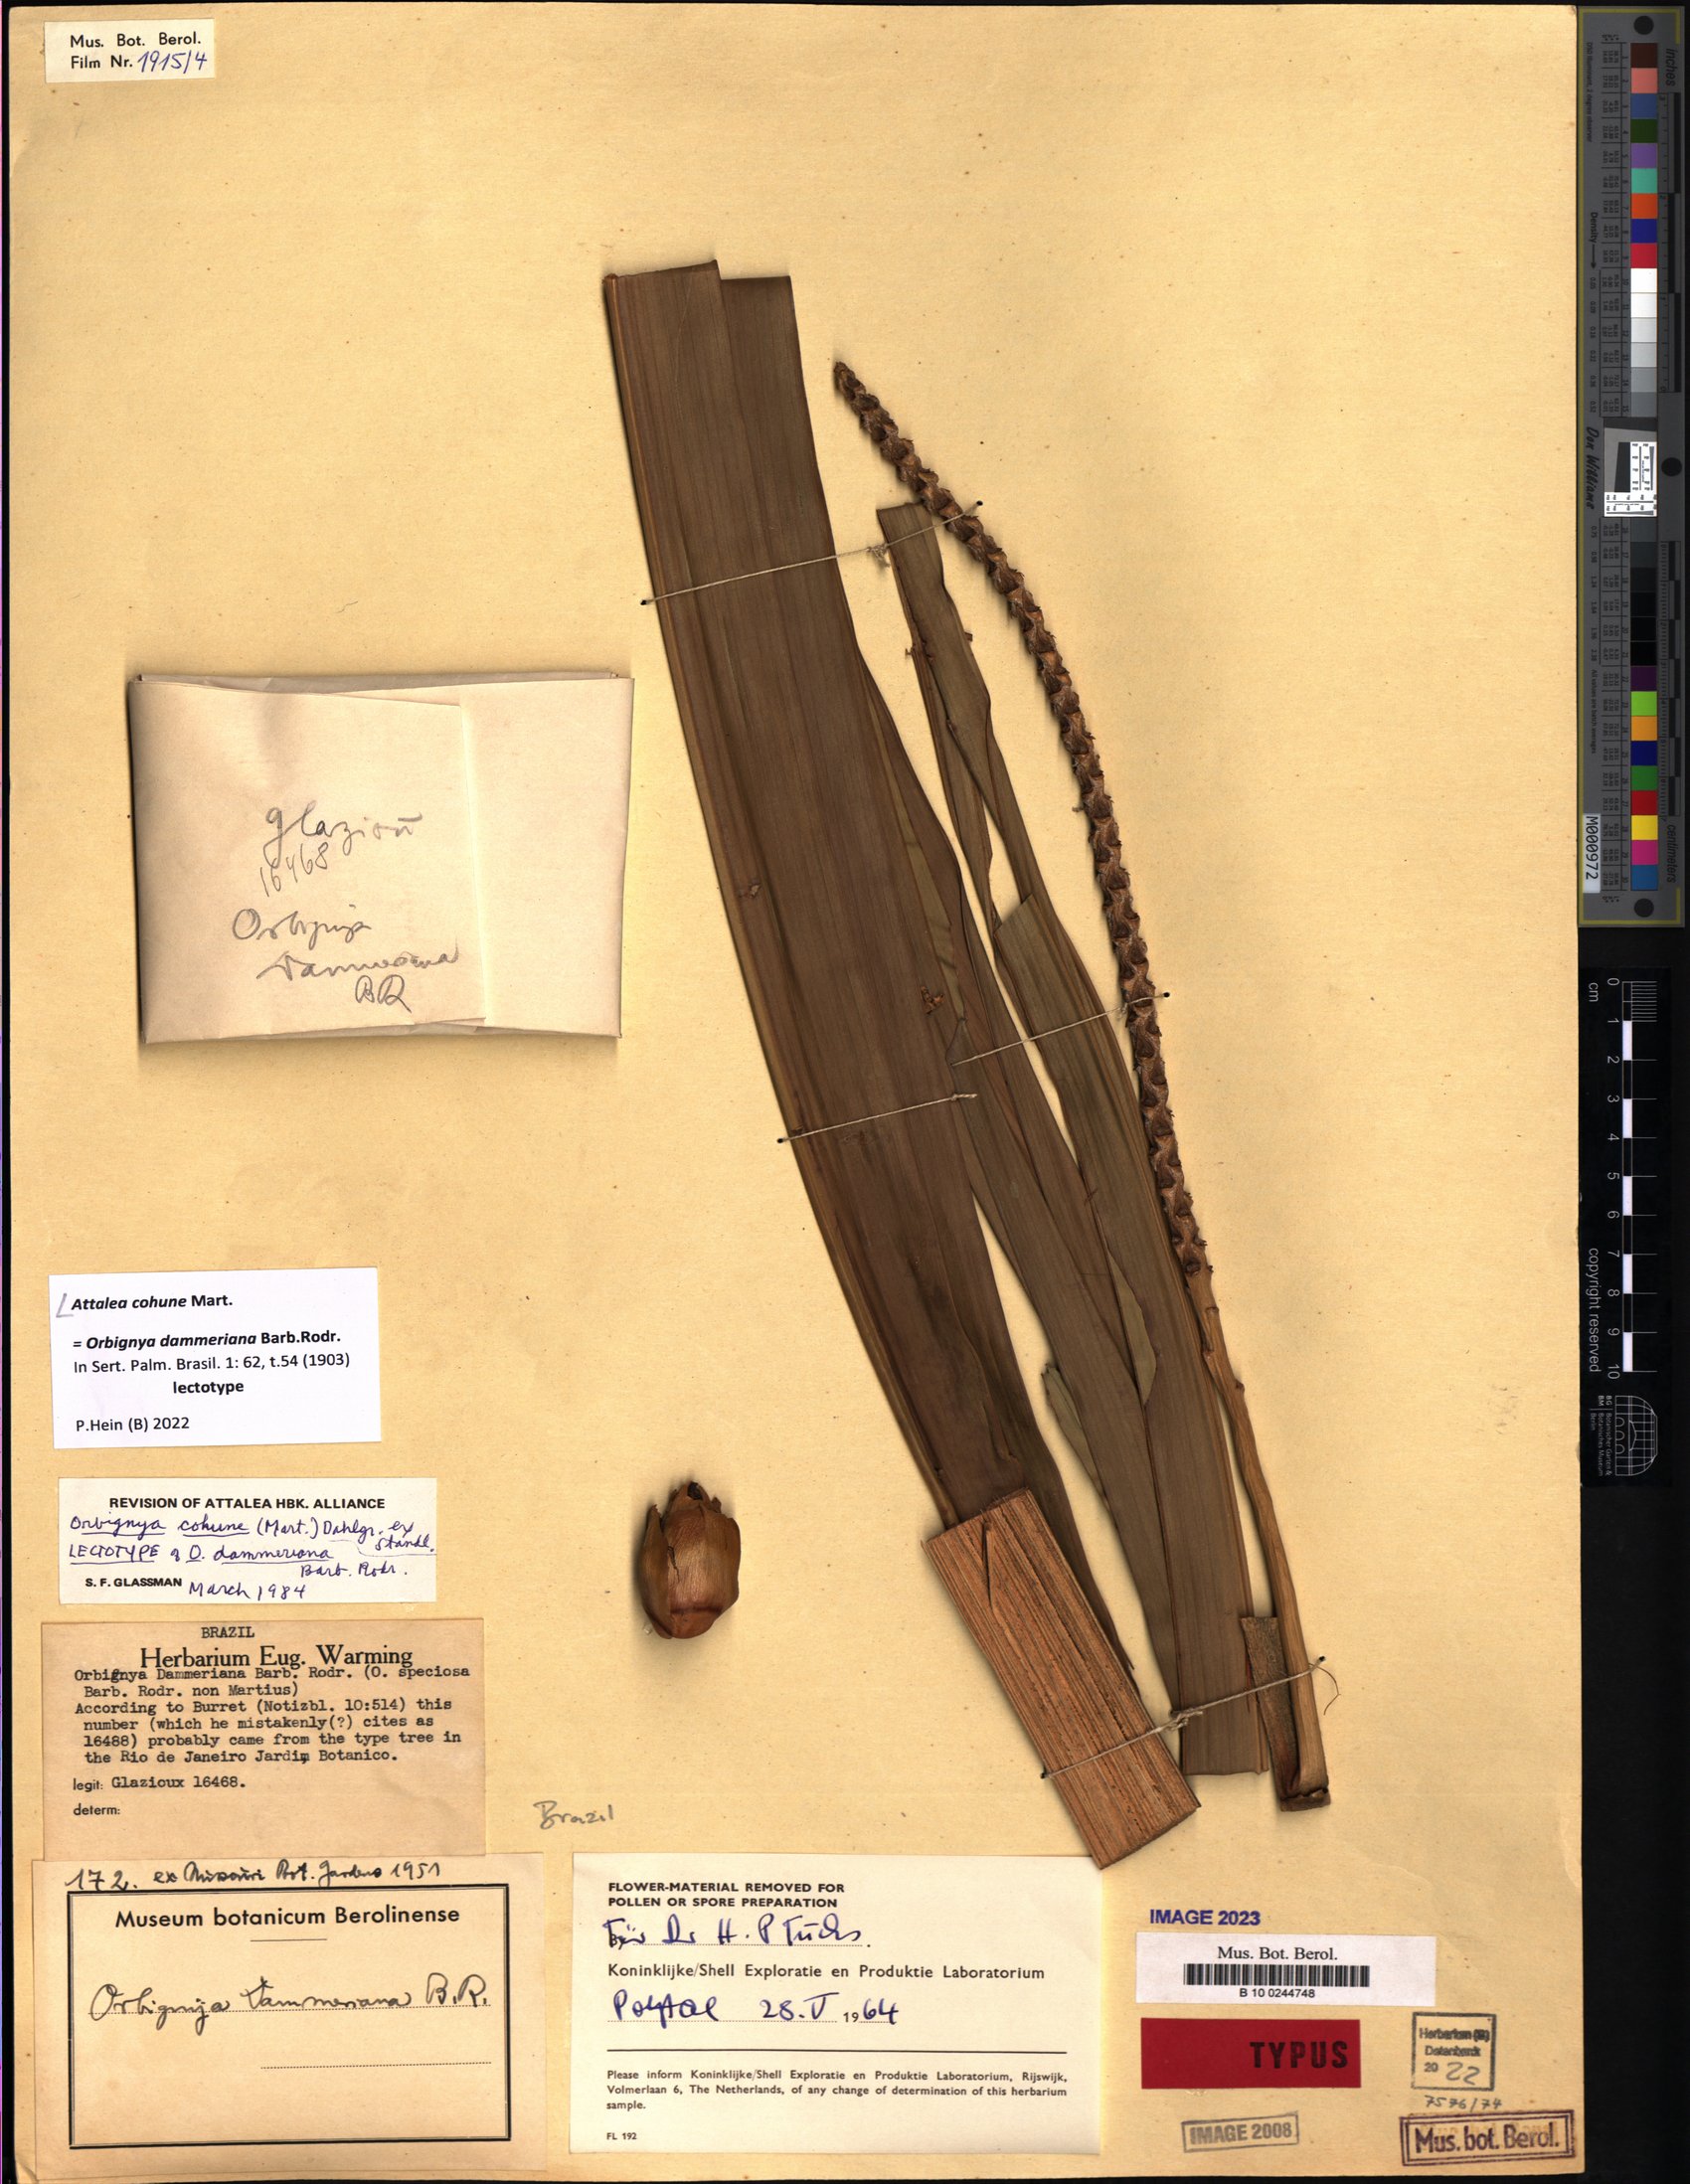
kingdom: Plantae
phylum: Tracheophyta
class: Liliopsida
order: Arecales
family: Arecaceae
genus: Attalea
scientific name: Attalea cohune
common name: Cohune palm
